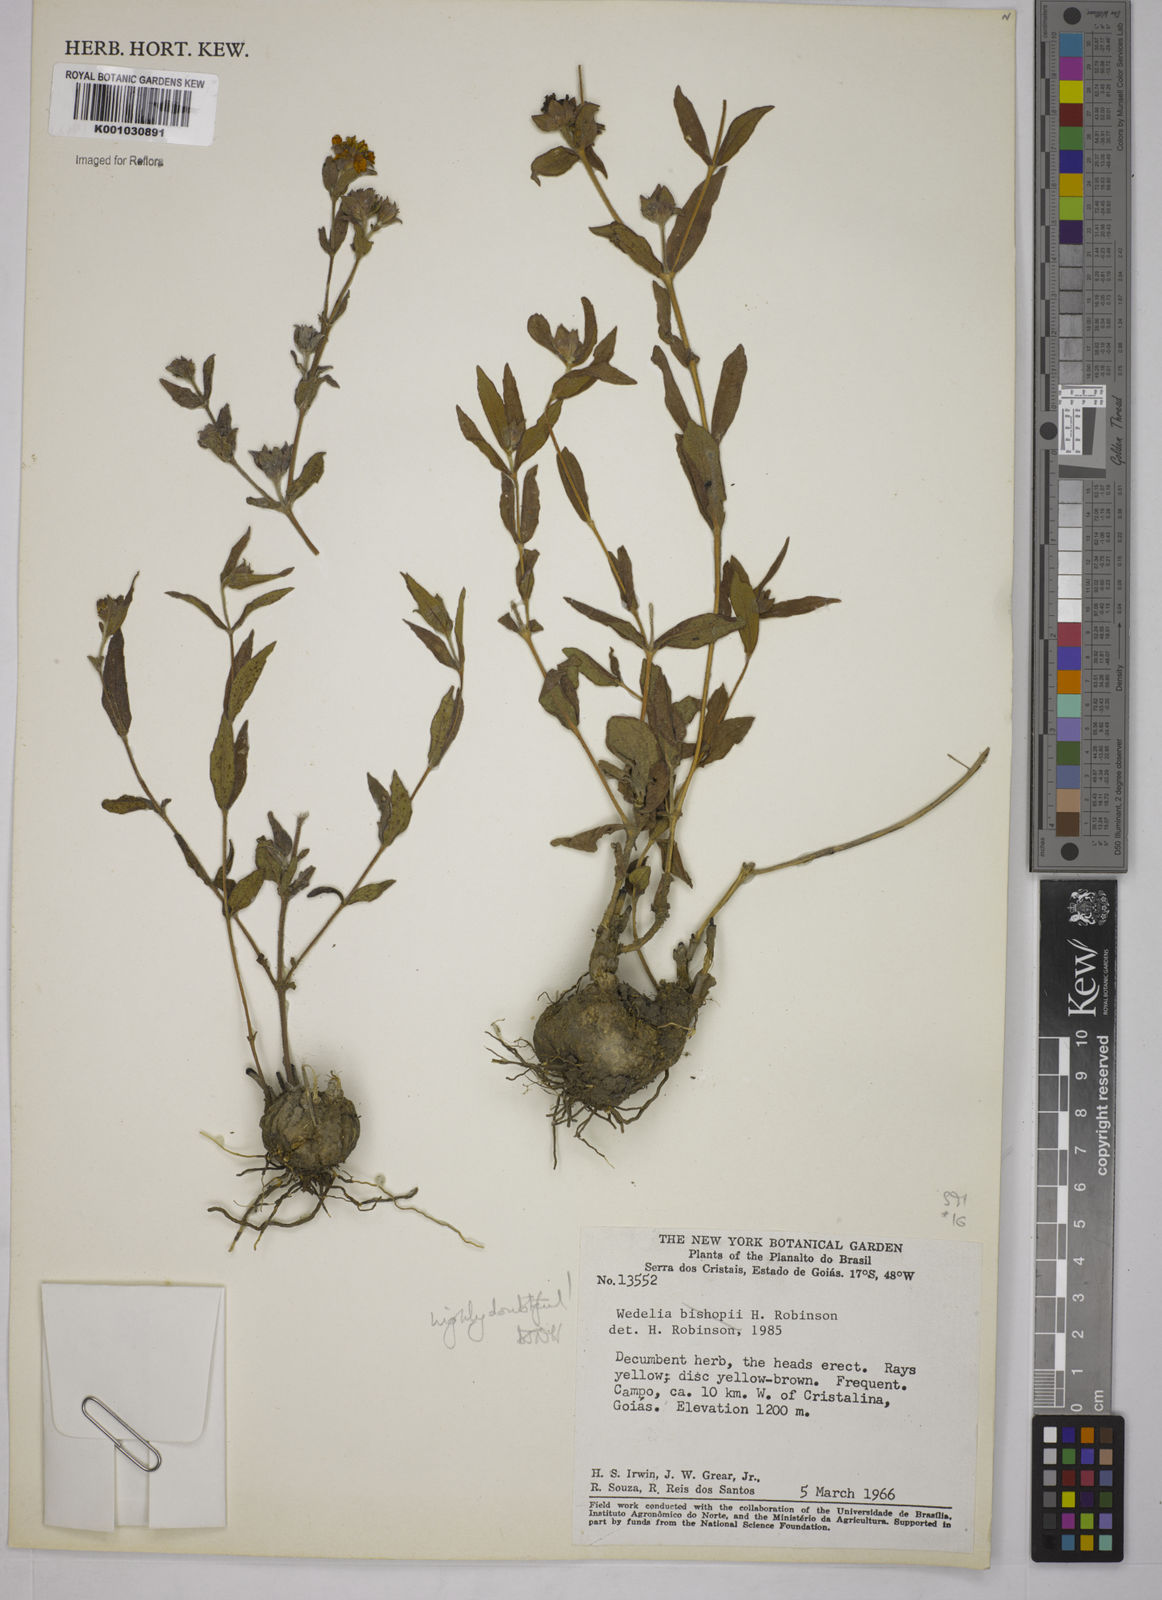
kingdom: Plantae
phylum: Tracheophyta
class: Magnoliopsida
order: Asterales
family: Asteraceae
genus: Wedelia
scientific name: Wedelia
